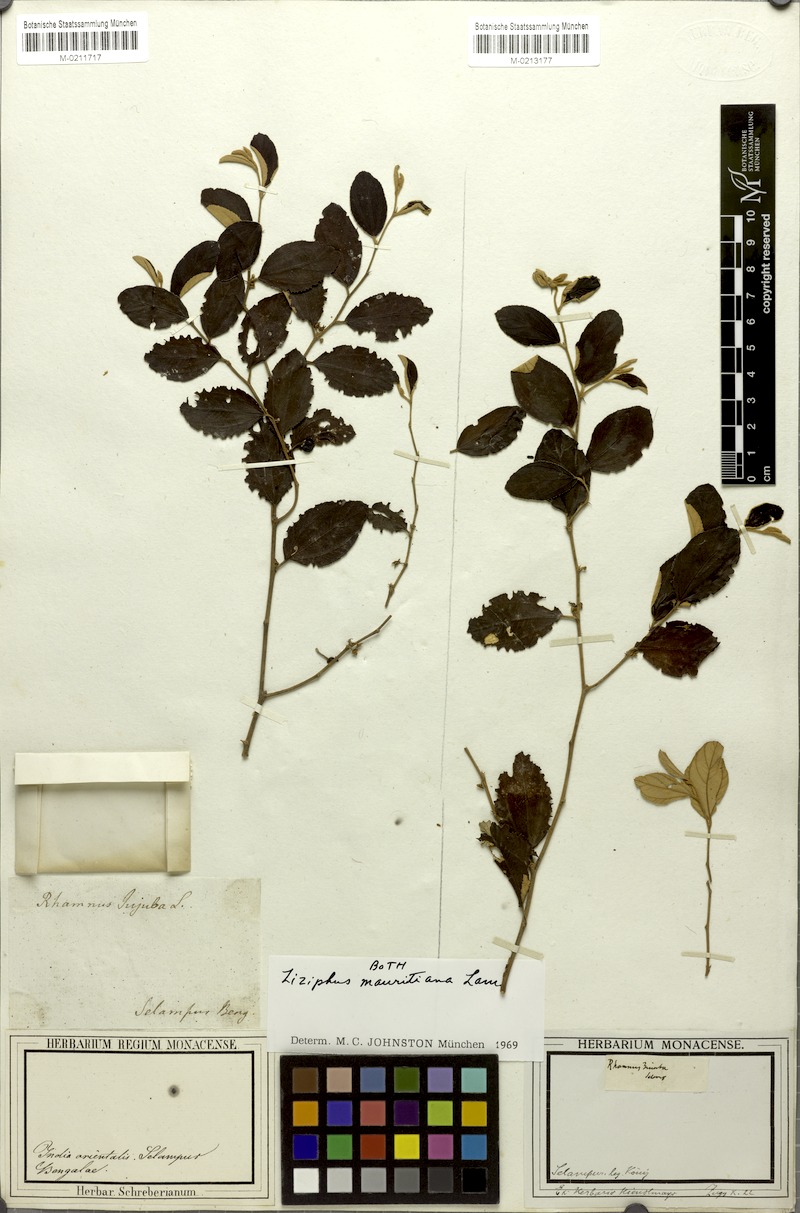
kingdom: Plantae
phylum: Tracheophyta
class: Magnoliopsida
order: Rosales
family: Rhamnaceae
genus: Ziziphus
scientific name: Ziziphus mauritiana
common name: Indian jujube
